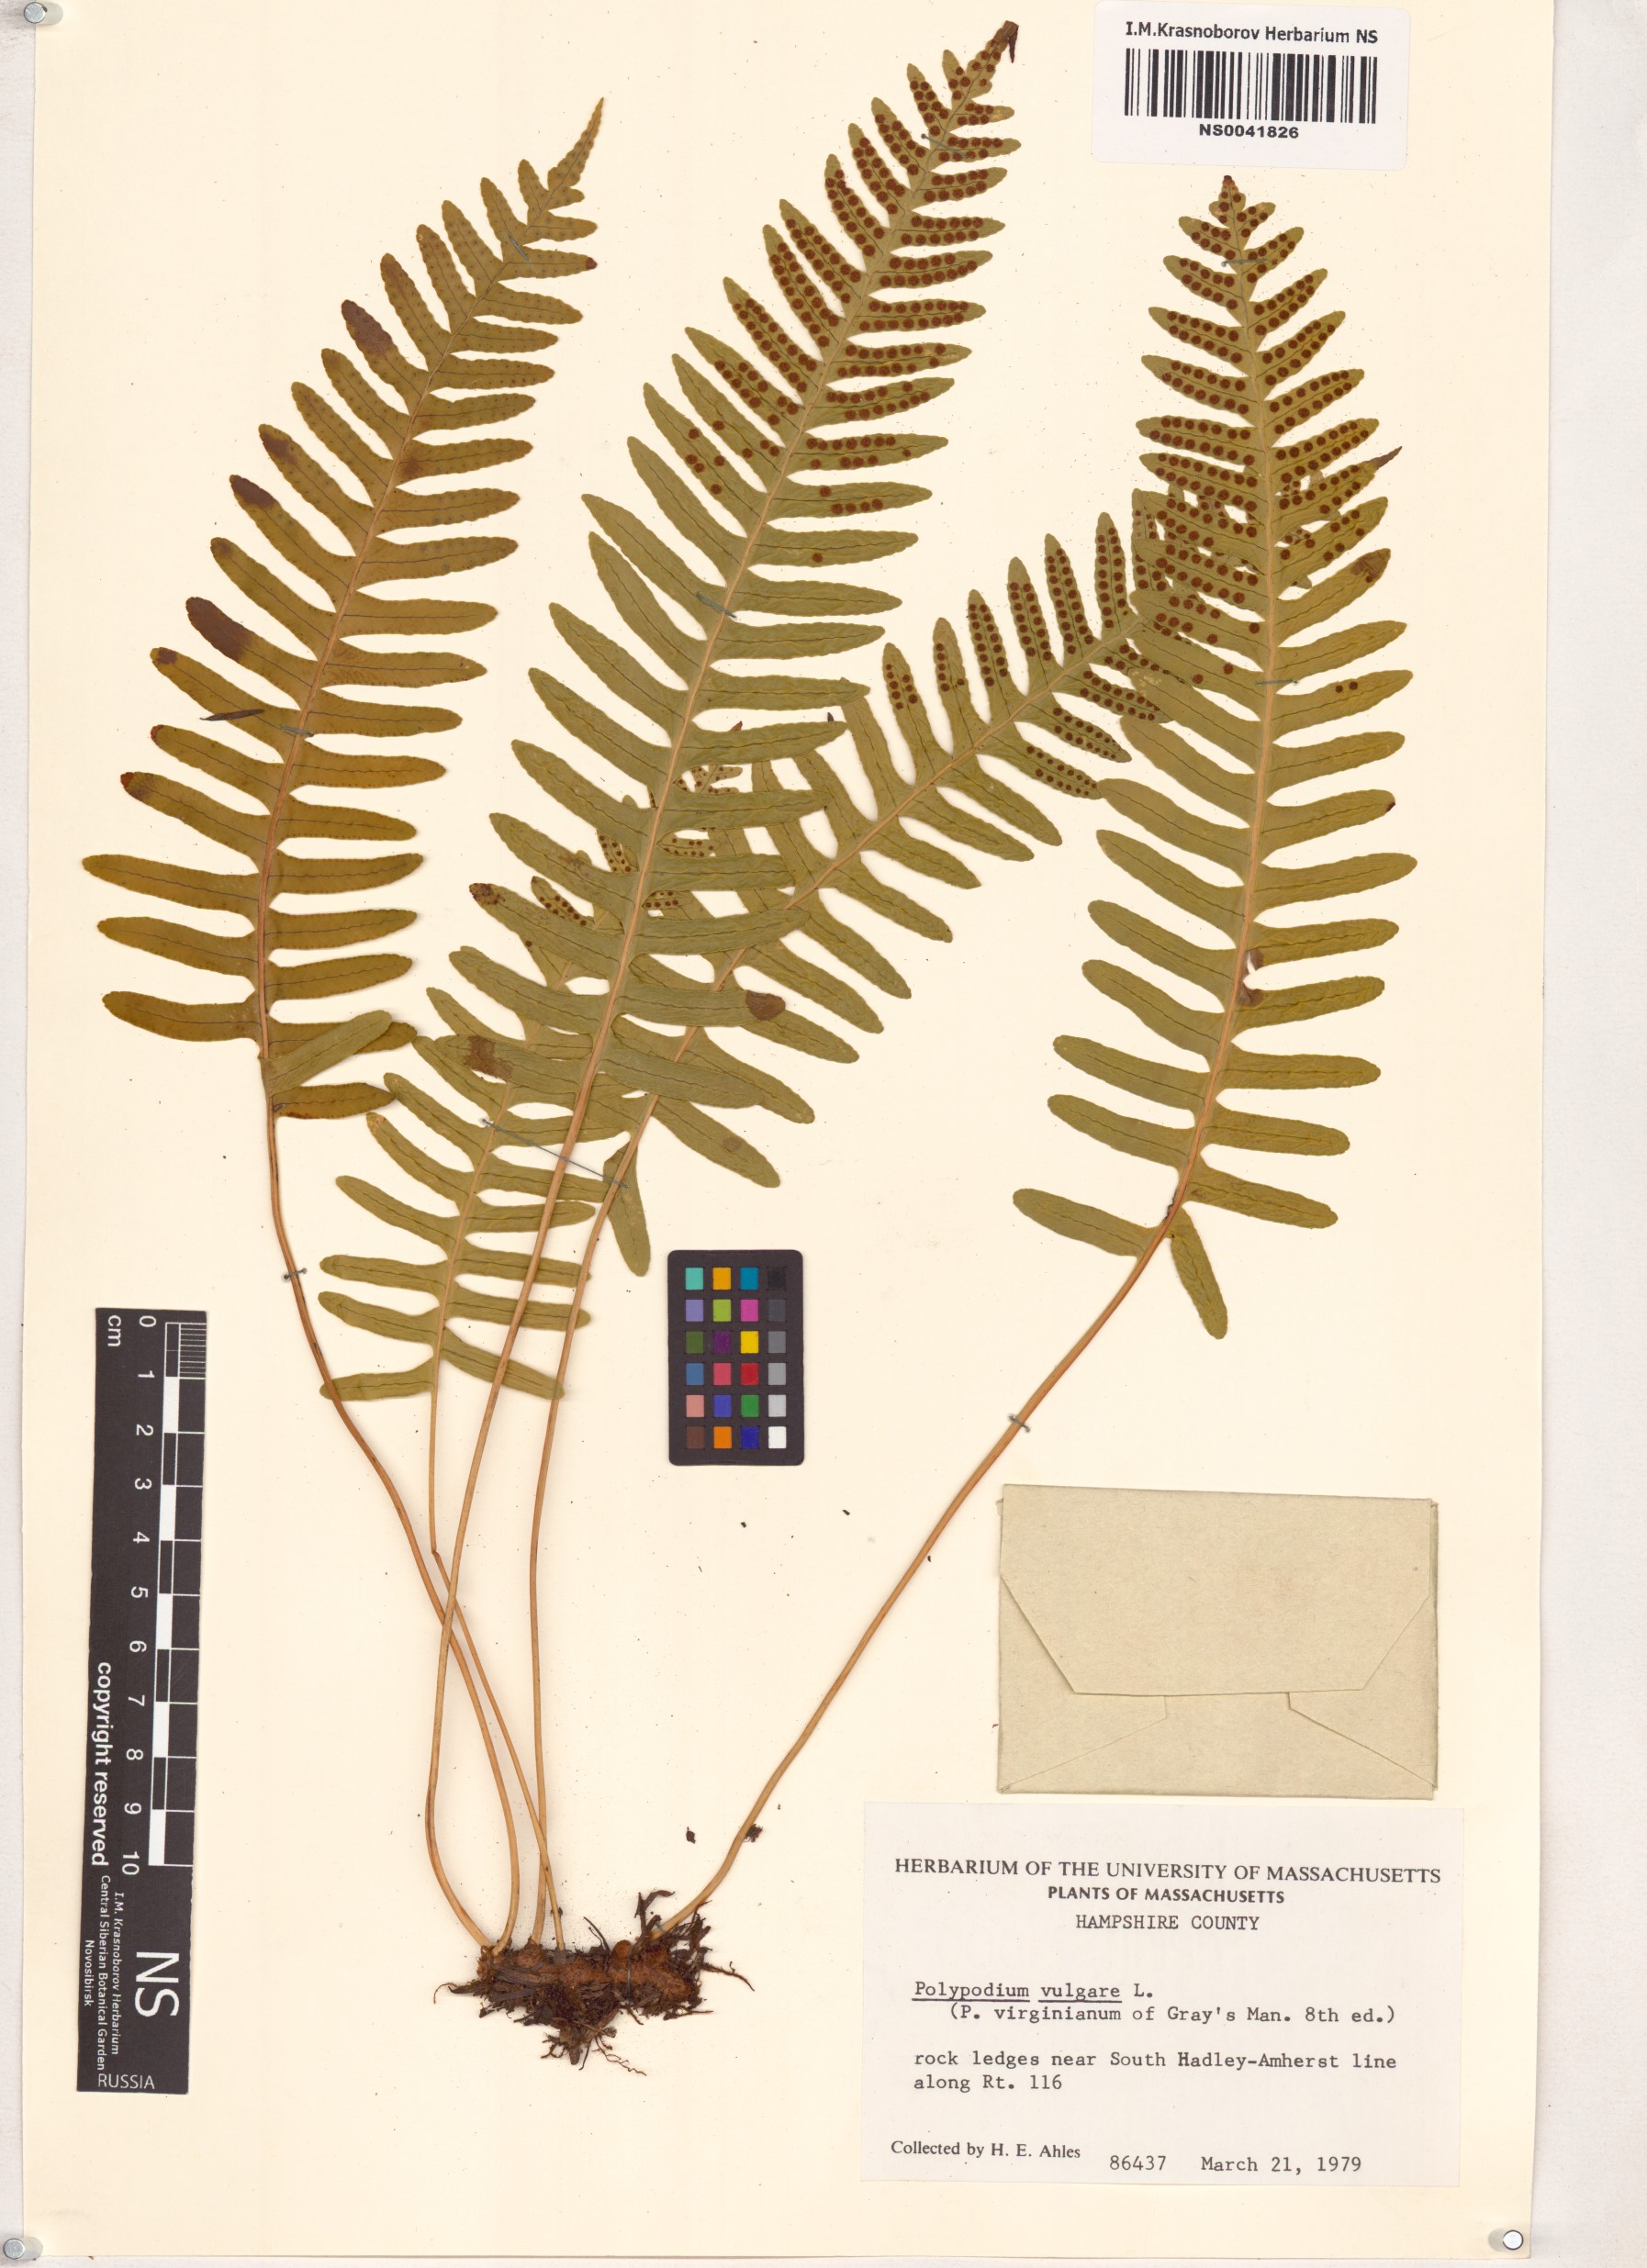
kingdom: Plantae
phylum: Tracheophyta
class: Polypodiopsida
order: Polypodiales
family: Polypodiaceae
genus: Polypodium
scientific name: Polypodium vulgare
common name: Common polypody
